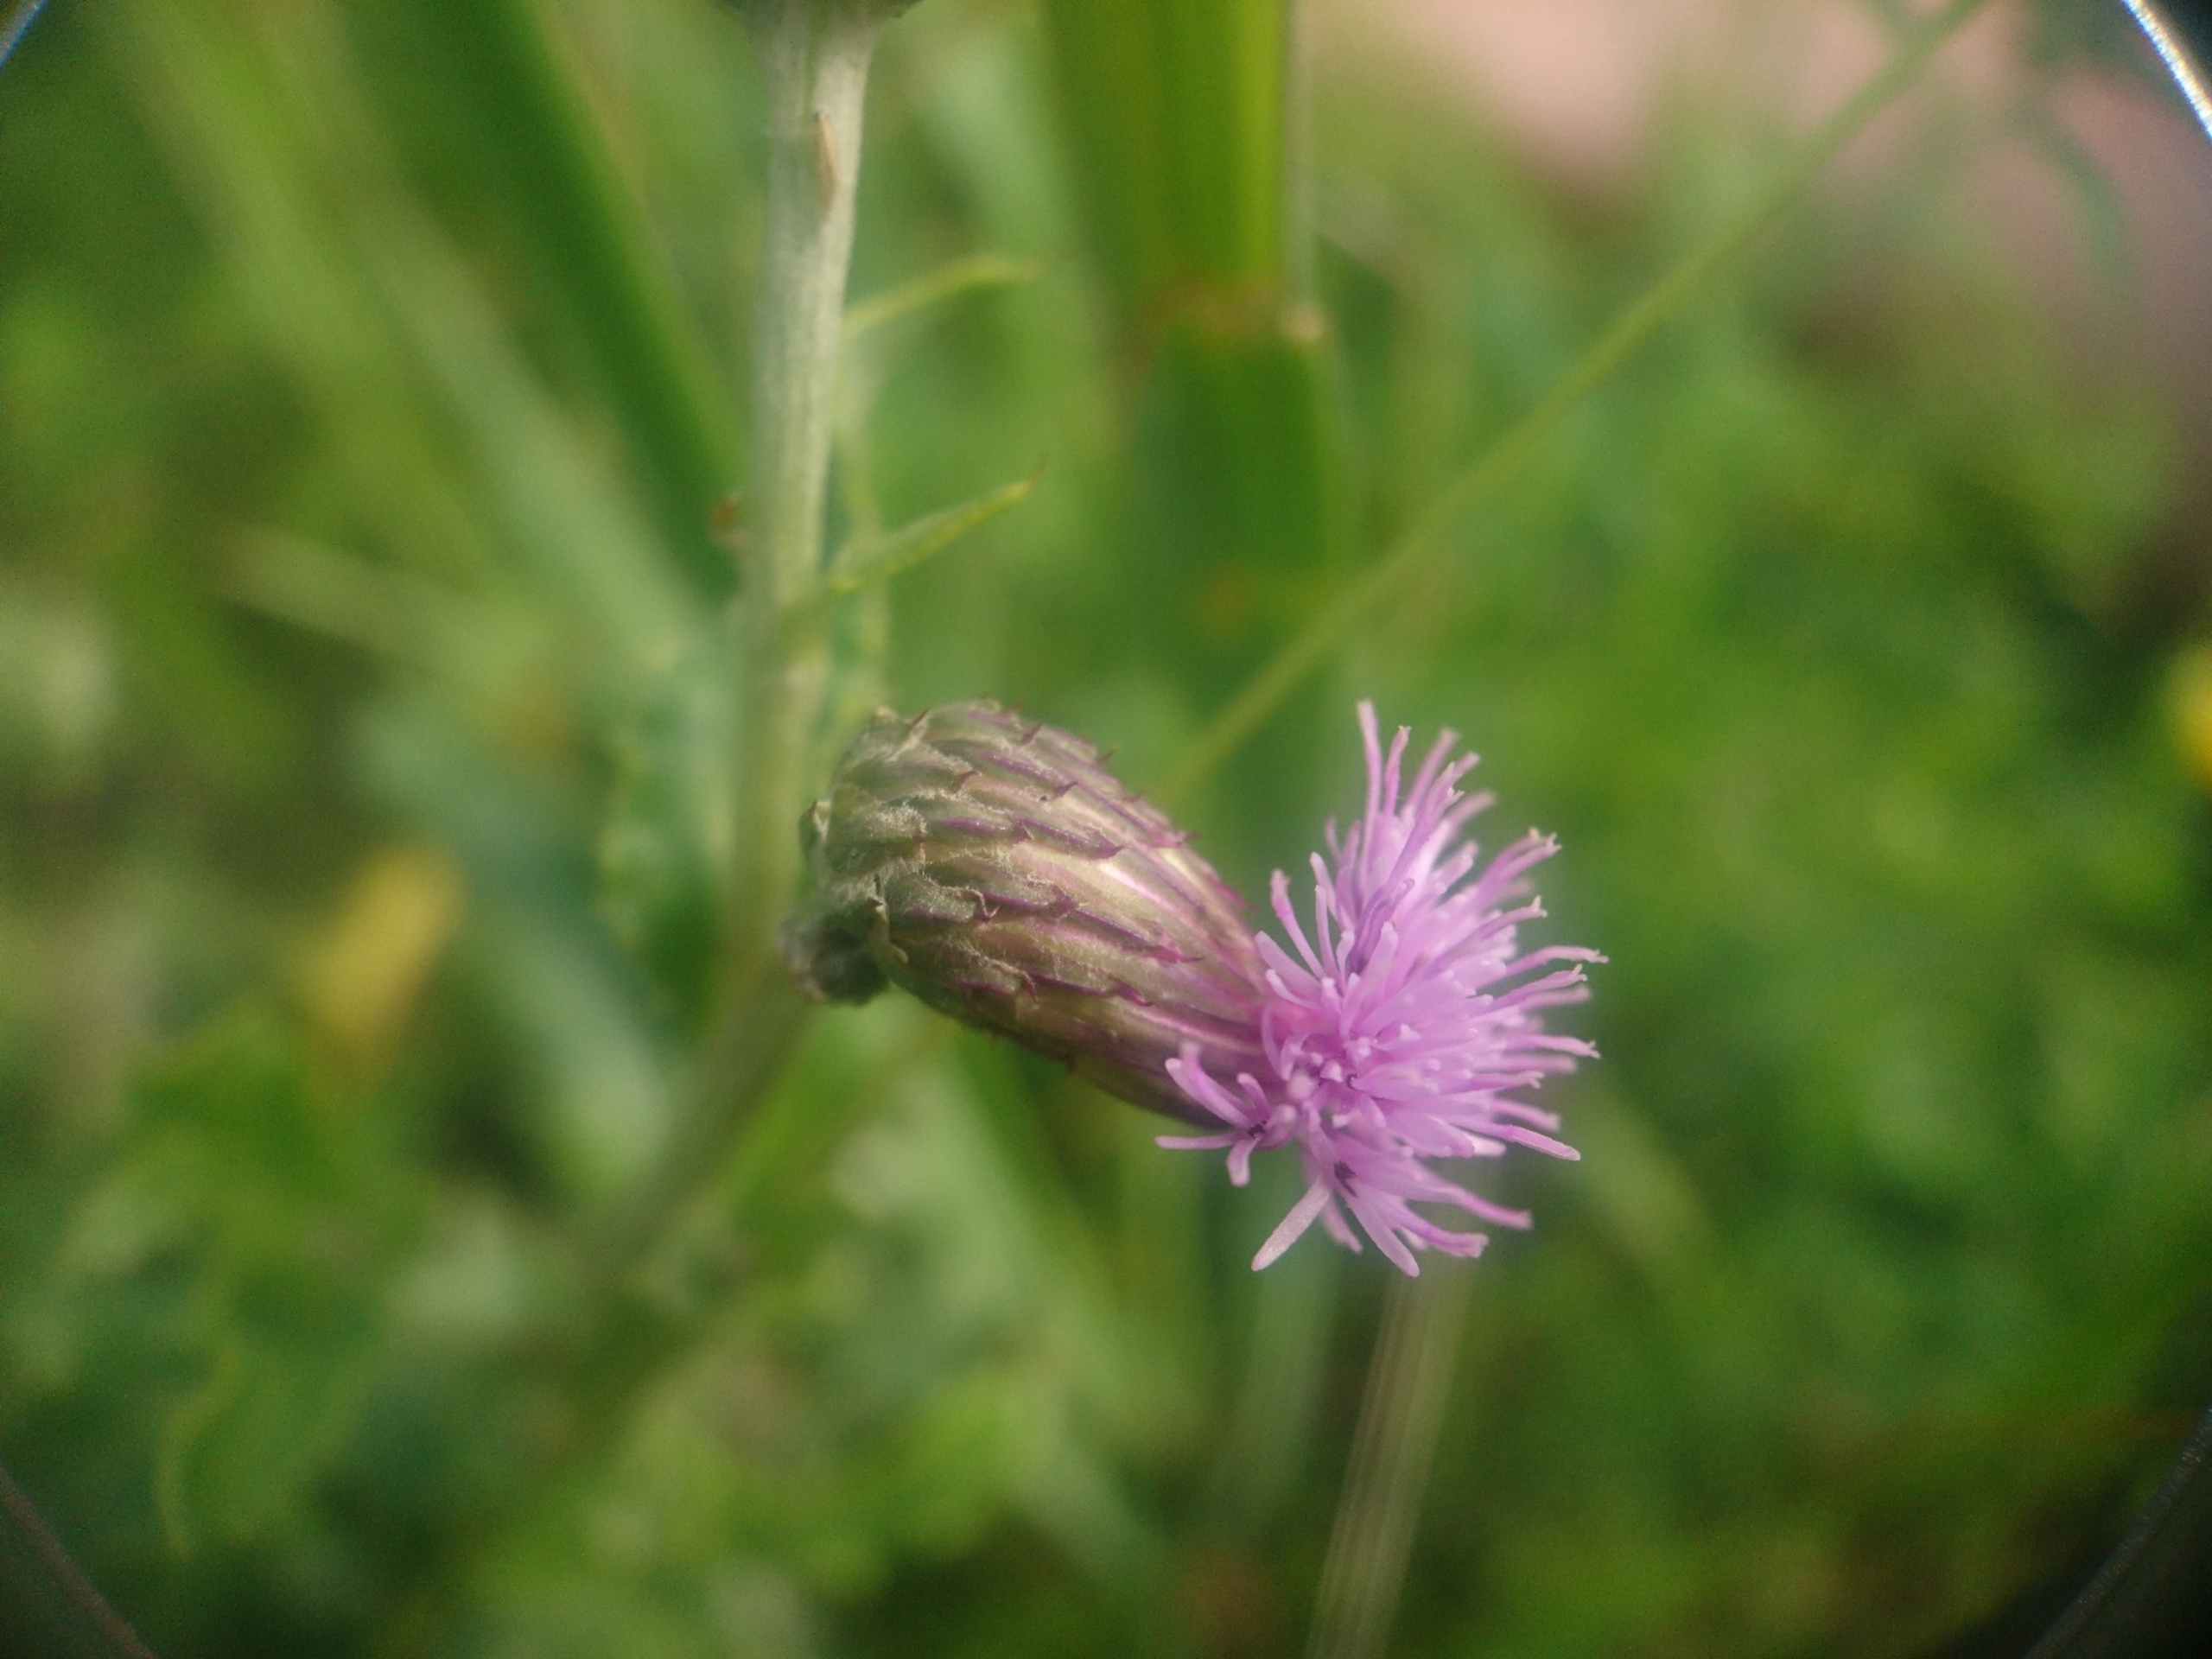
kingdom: Plantae
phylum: Tracheophyta
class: Magnoliopsida
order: Asterales
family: Asteraceae
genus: Cirsium
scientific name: Cirsium arvense
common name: Ager-tidsel
